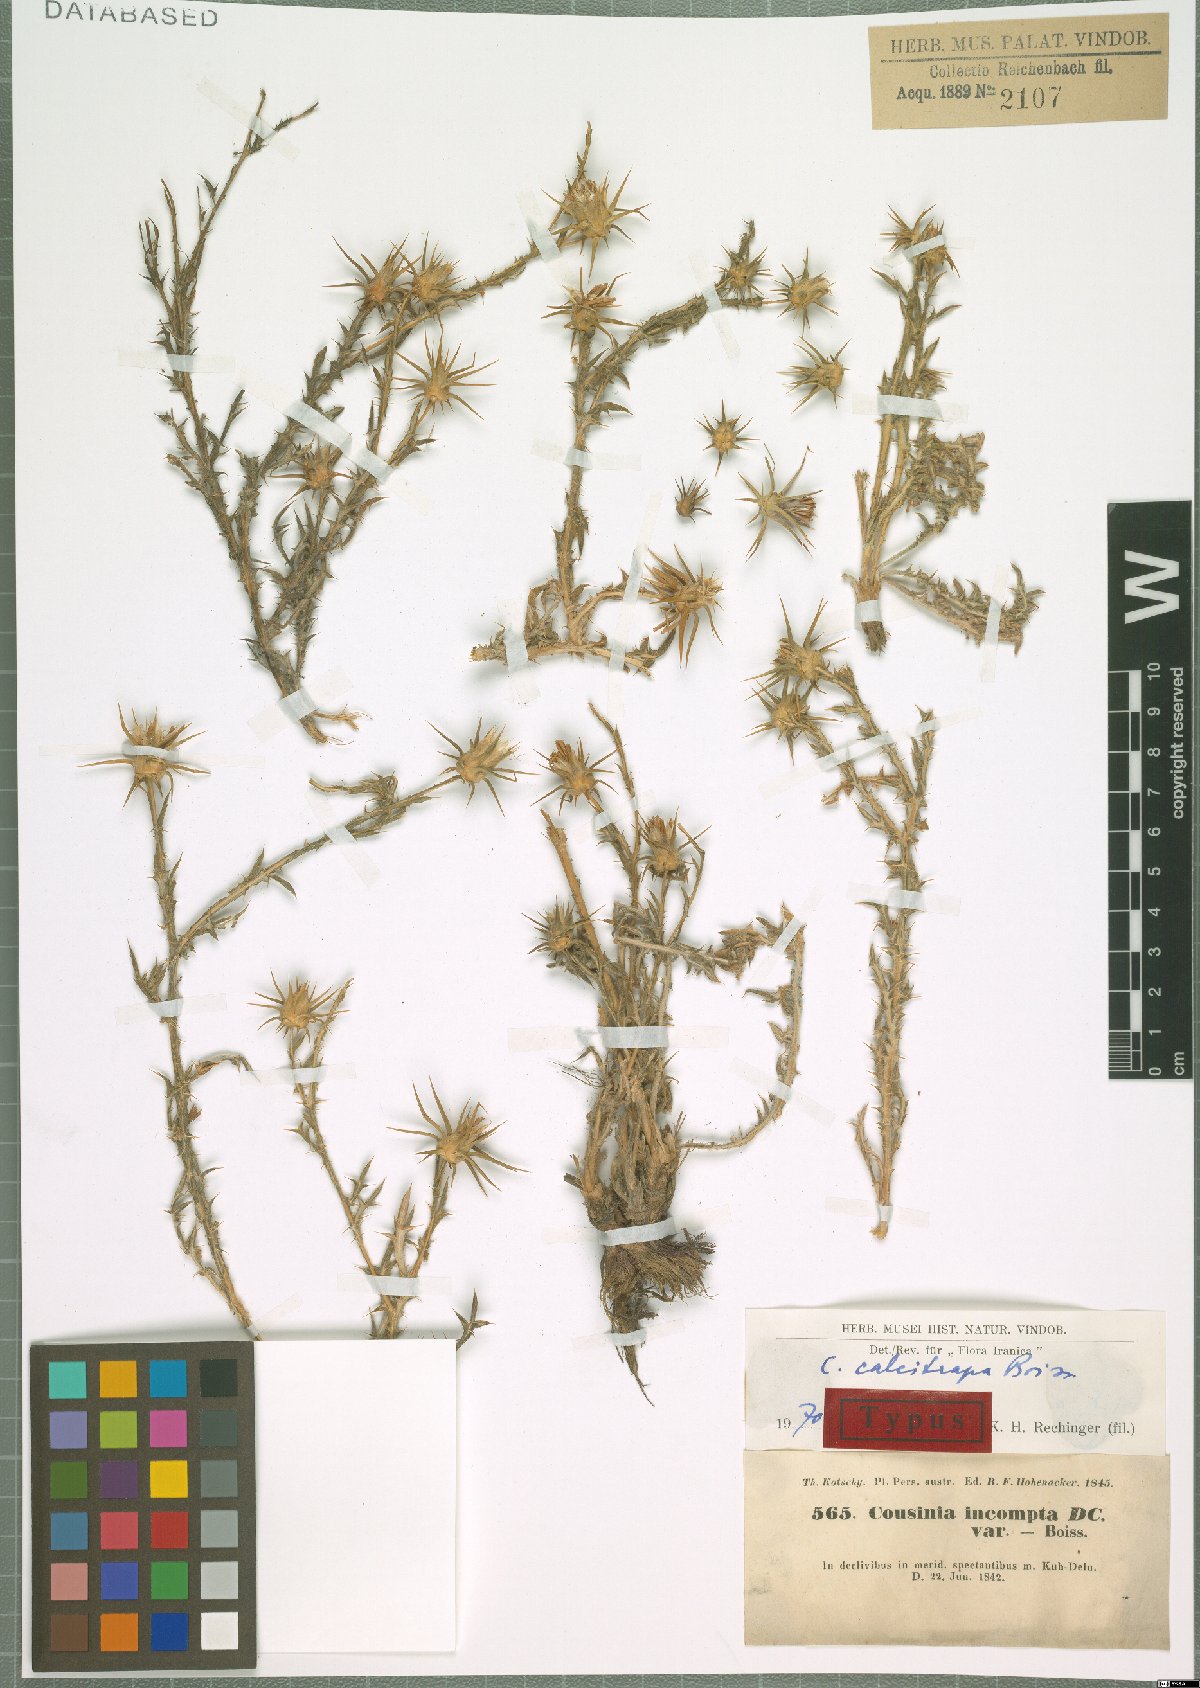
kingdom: Plantae
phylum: Tracheophyta
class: Magnoliopsida
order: Asterales
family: Asteraceae
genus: Cousinia
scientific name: Cousinia calcitrapa
